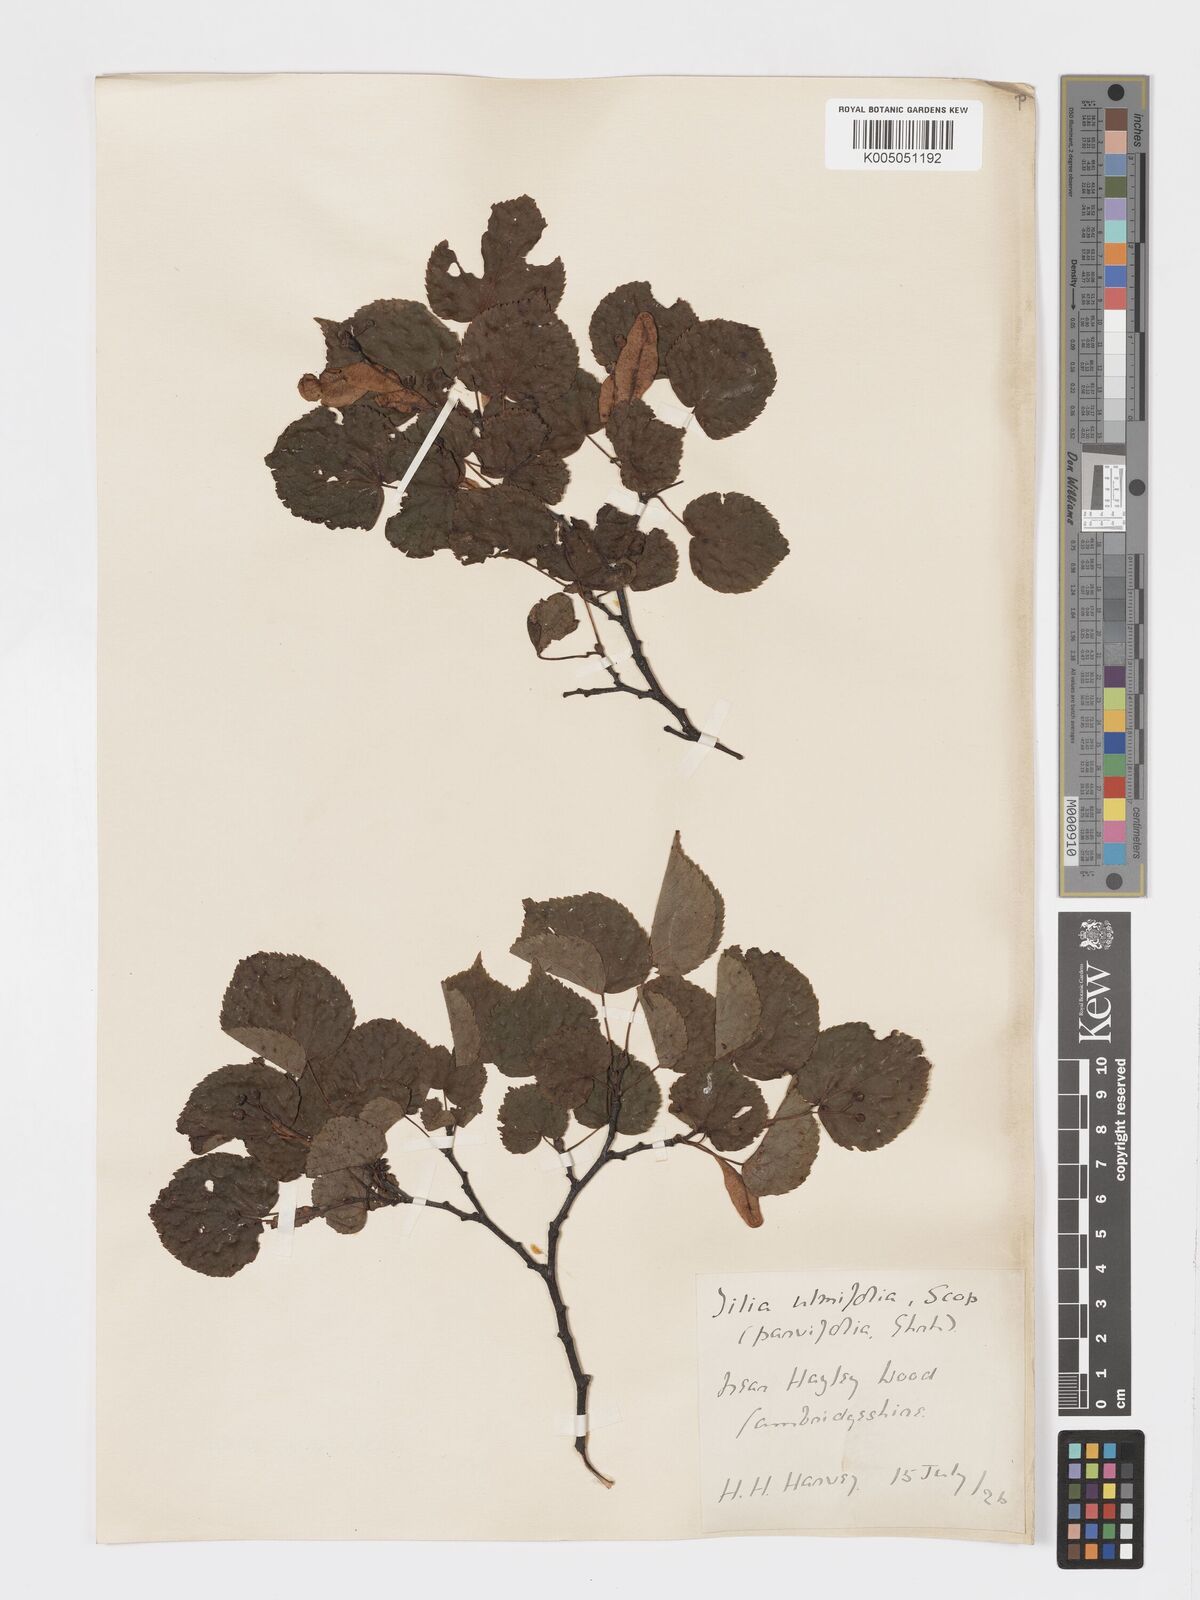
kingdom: Plantae
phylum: Tracheophyta
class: Magnoliopsida
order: Malvales
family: Malvaceae
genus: Tilia
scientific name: Tilia
